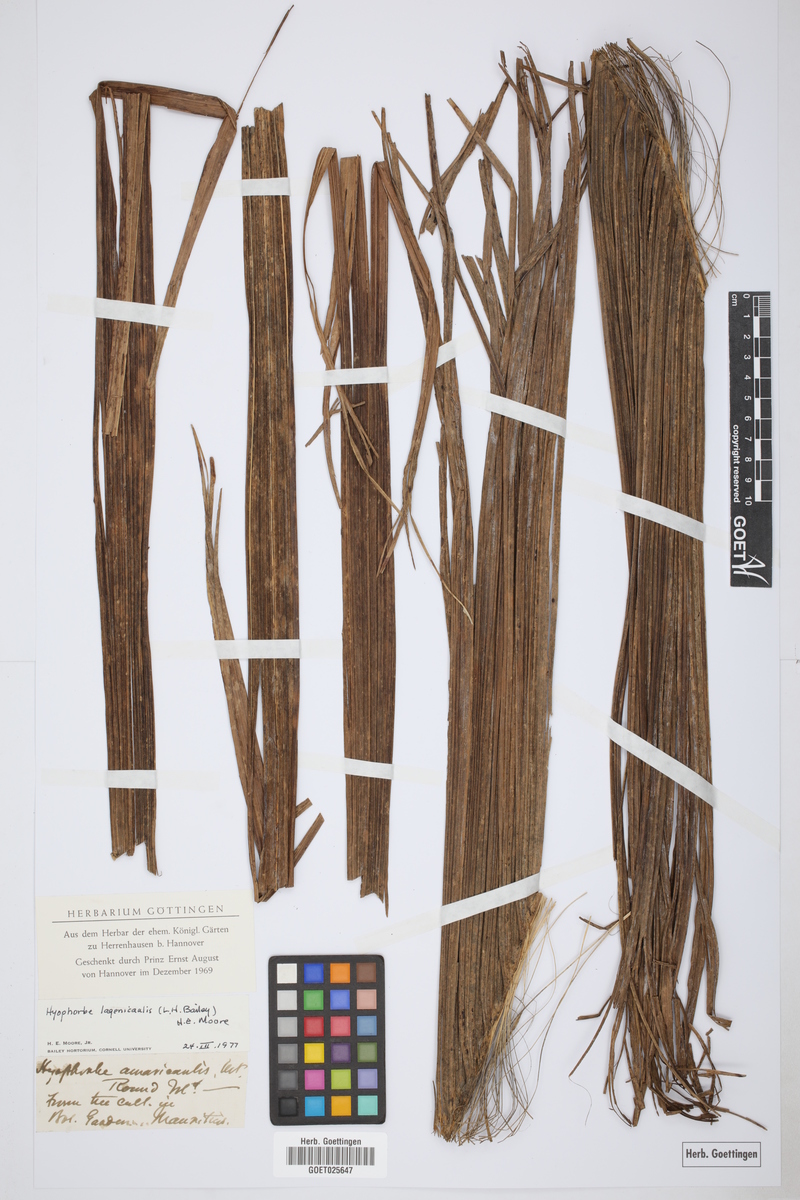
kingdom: Plantae
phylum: Tracheophyta
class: Liliopsida
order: Arecales
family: Arecaceae
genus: Hyophorbe
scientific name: Hyophorbe lagenicaulis
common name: Bottle palm
